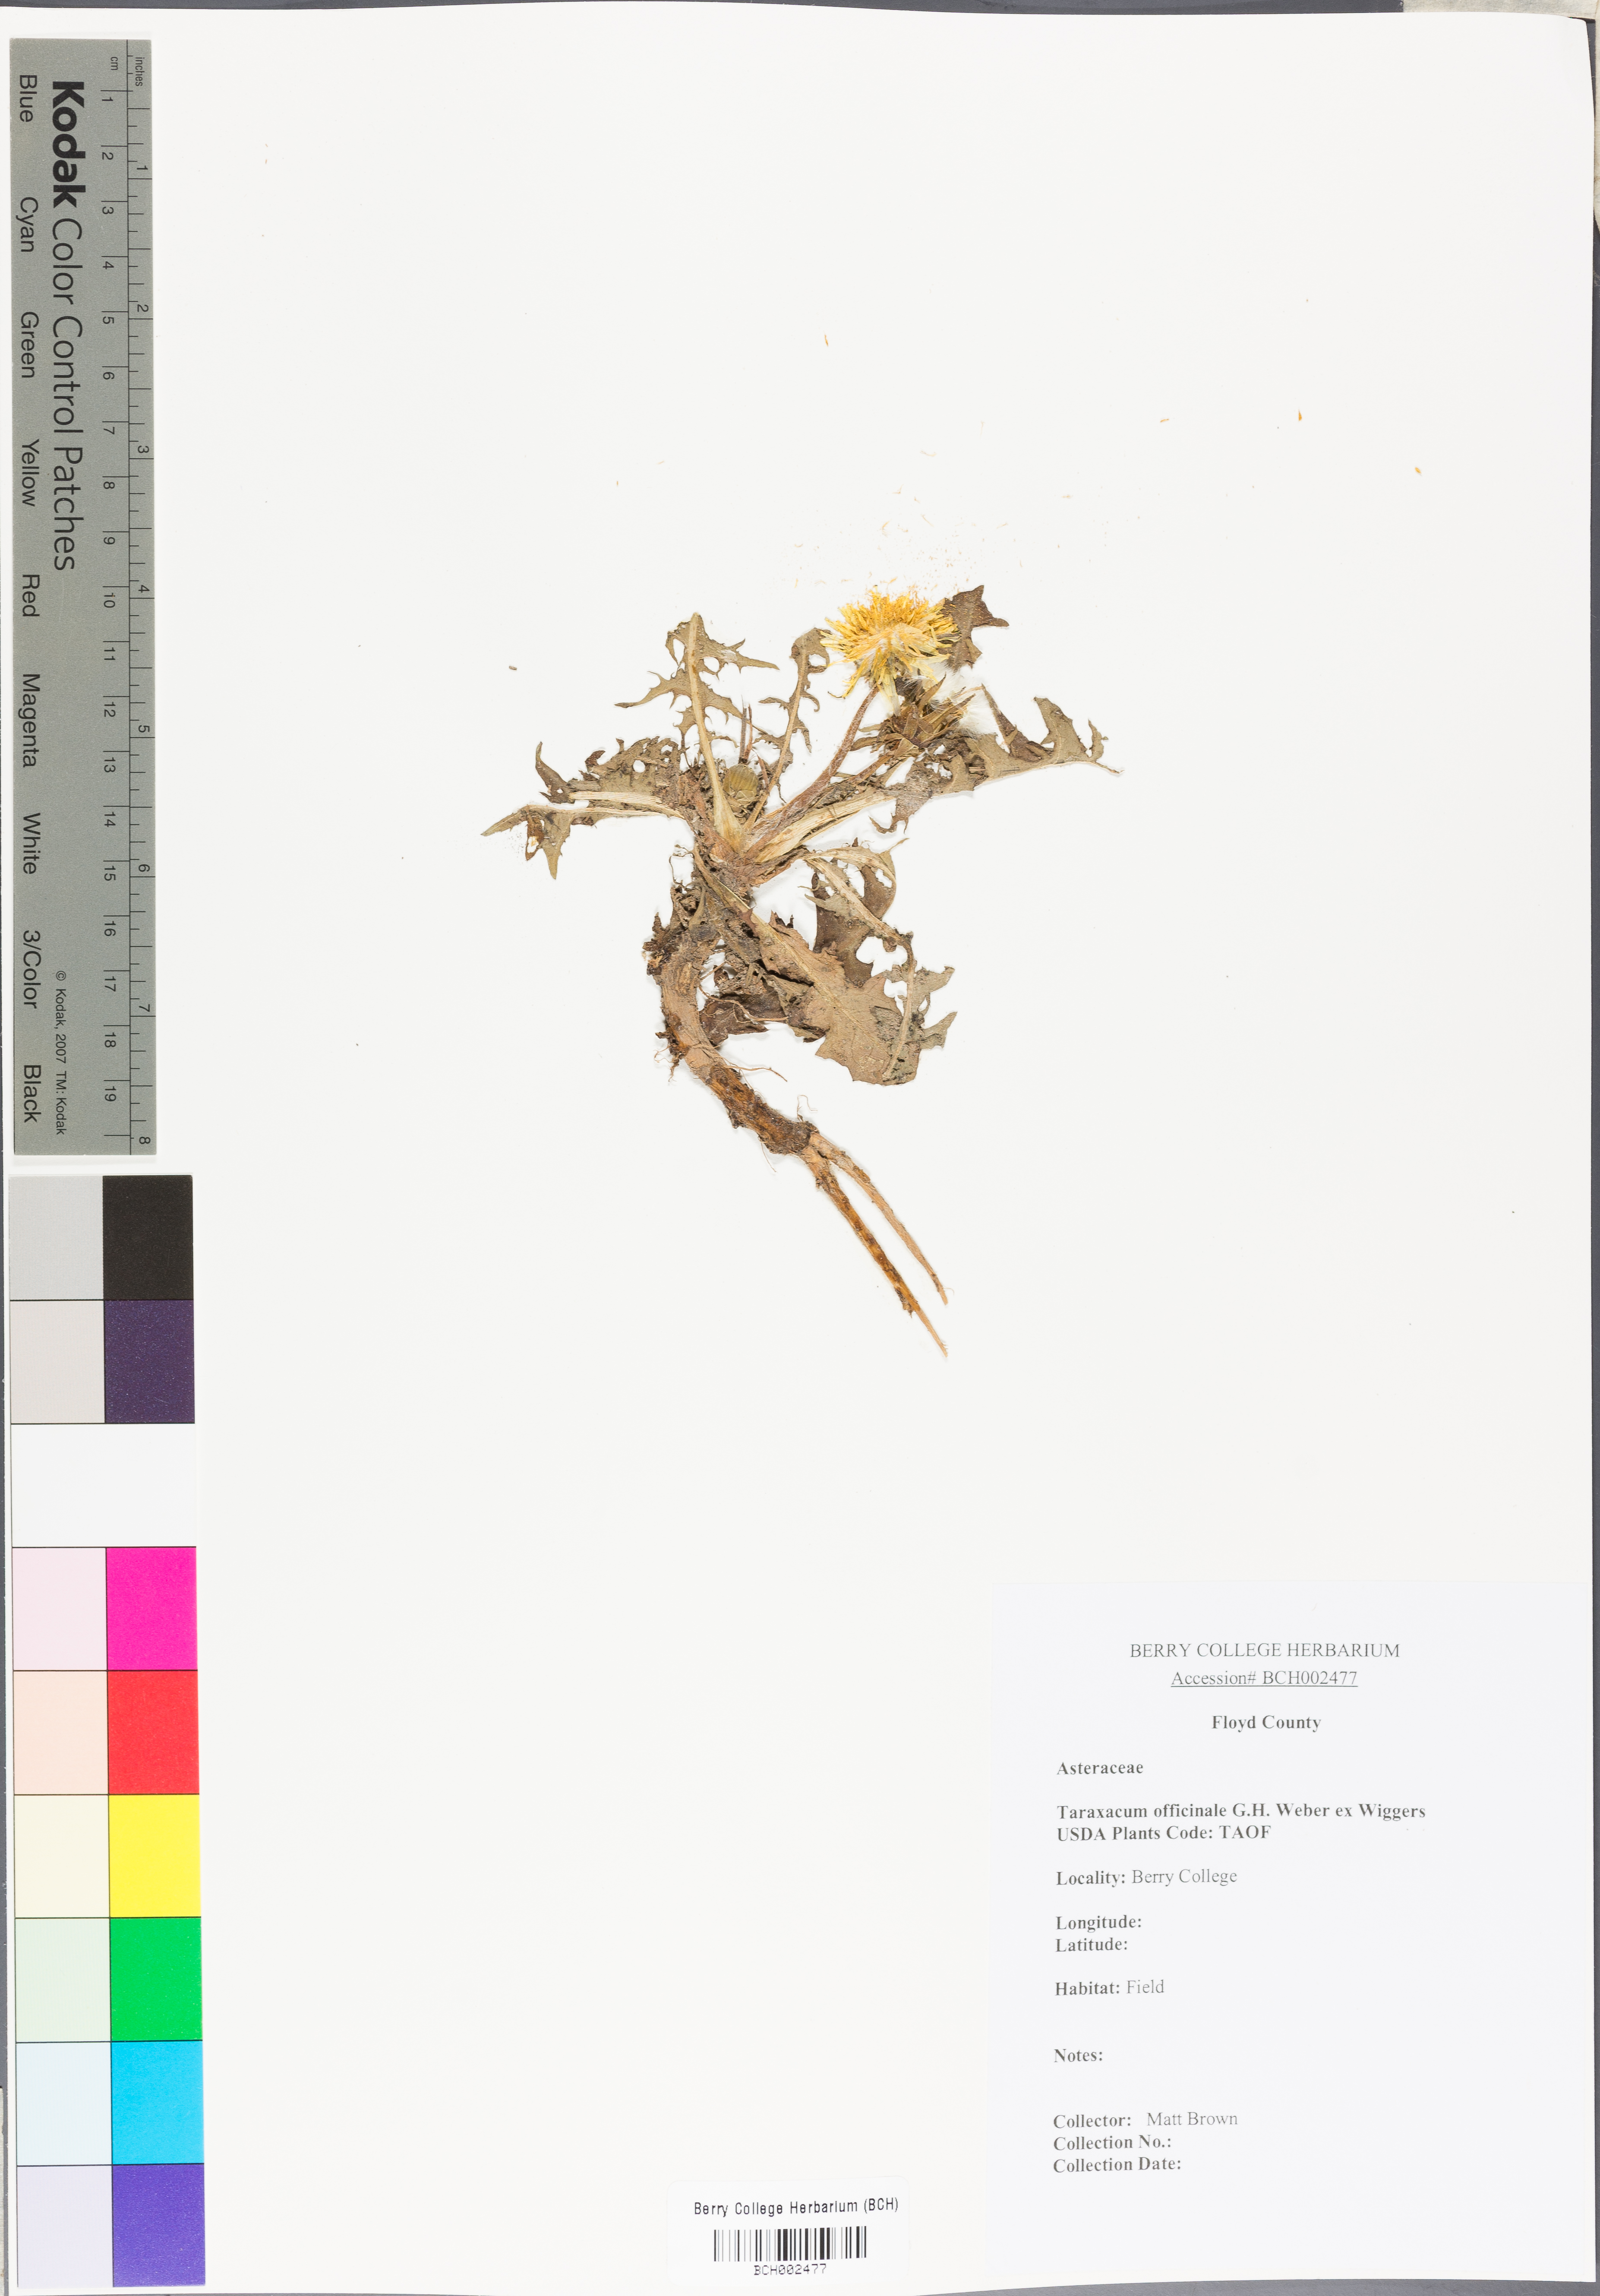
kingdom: Plantae
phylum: Tracheophyta
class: Magnoliopsida
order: Asterales
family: Asteraceae
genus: Taraxacum
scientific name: Taraxacum officinale
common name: Common dandelion
